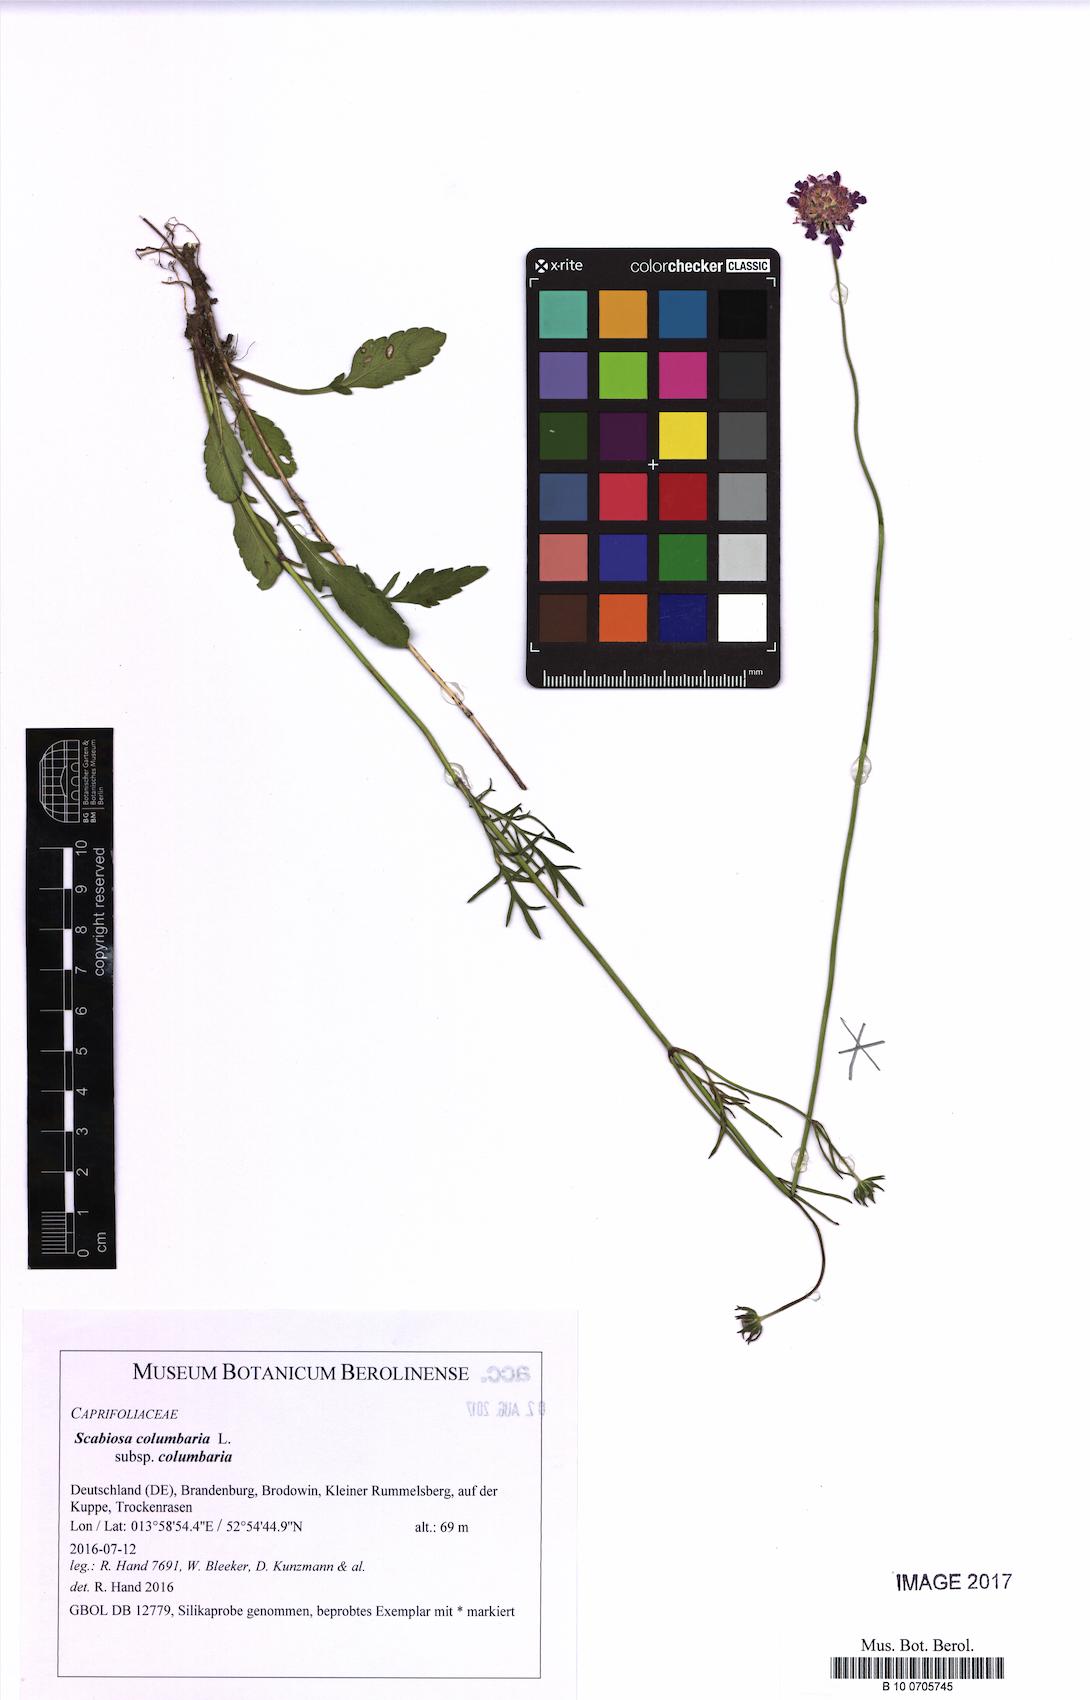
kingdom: Plantae
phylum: Tracheophyta
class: Magnoliopsida
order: Dipsacales
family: Caprifoliaceae
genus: Scabiosa
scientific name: Scabiosa columbaria
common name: Small scabious
